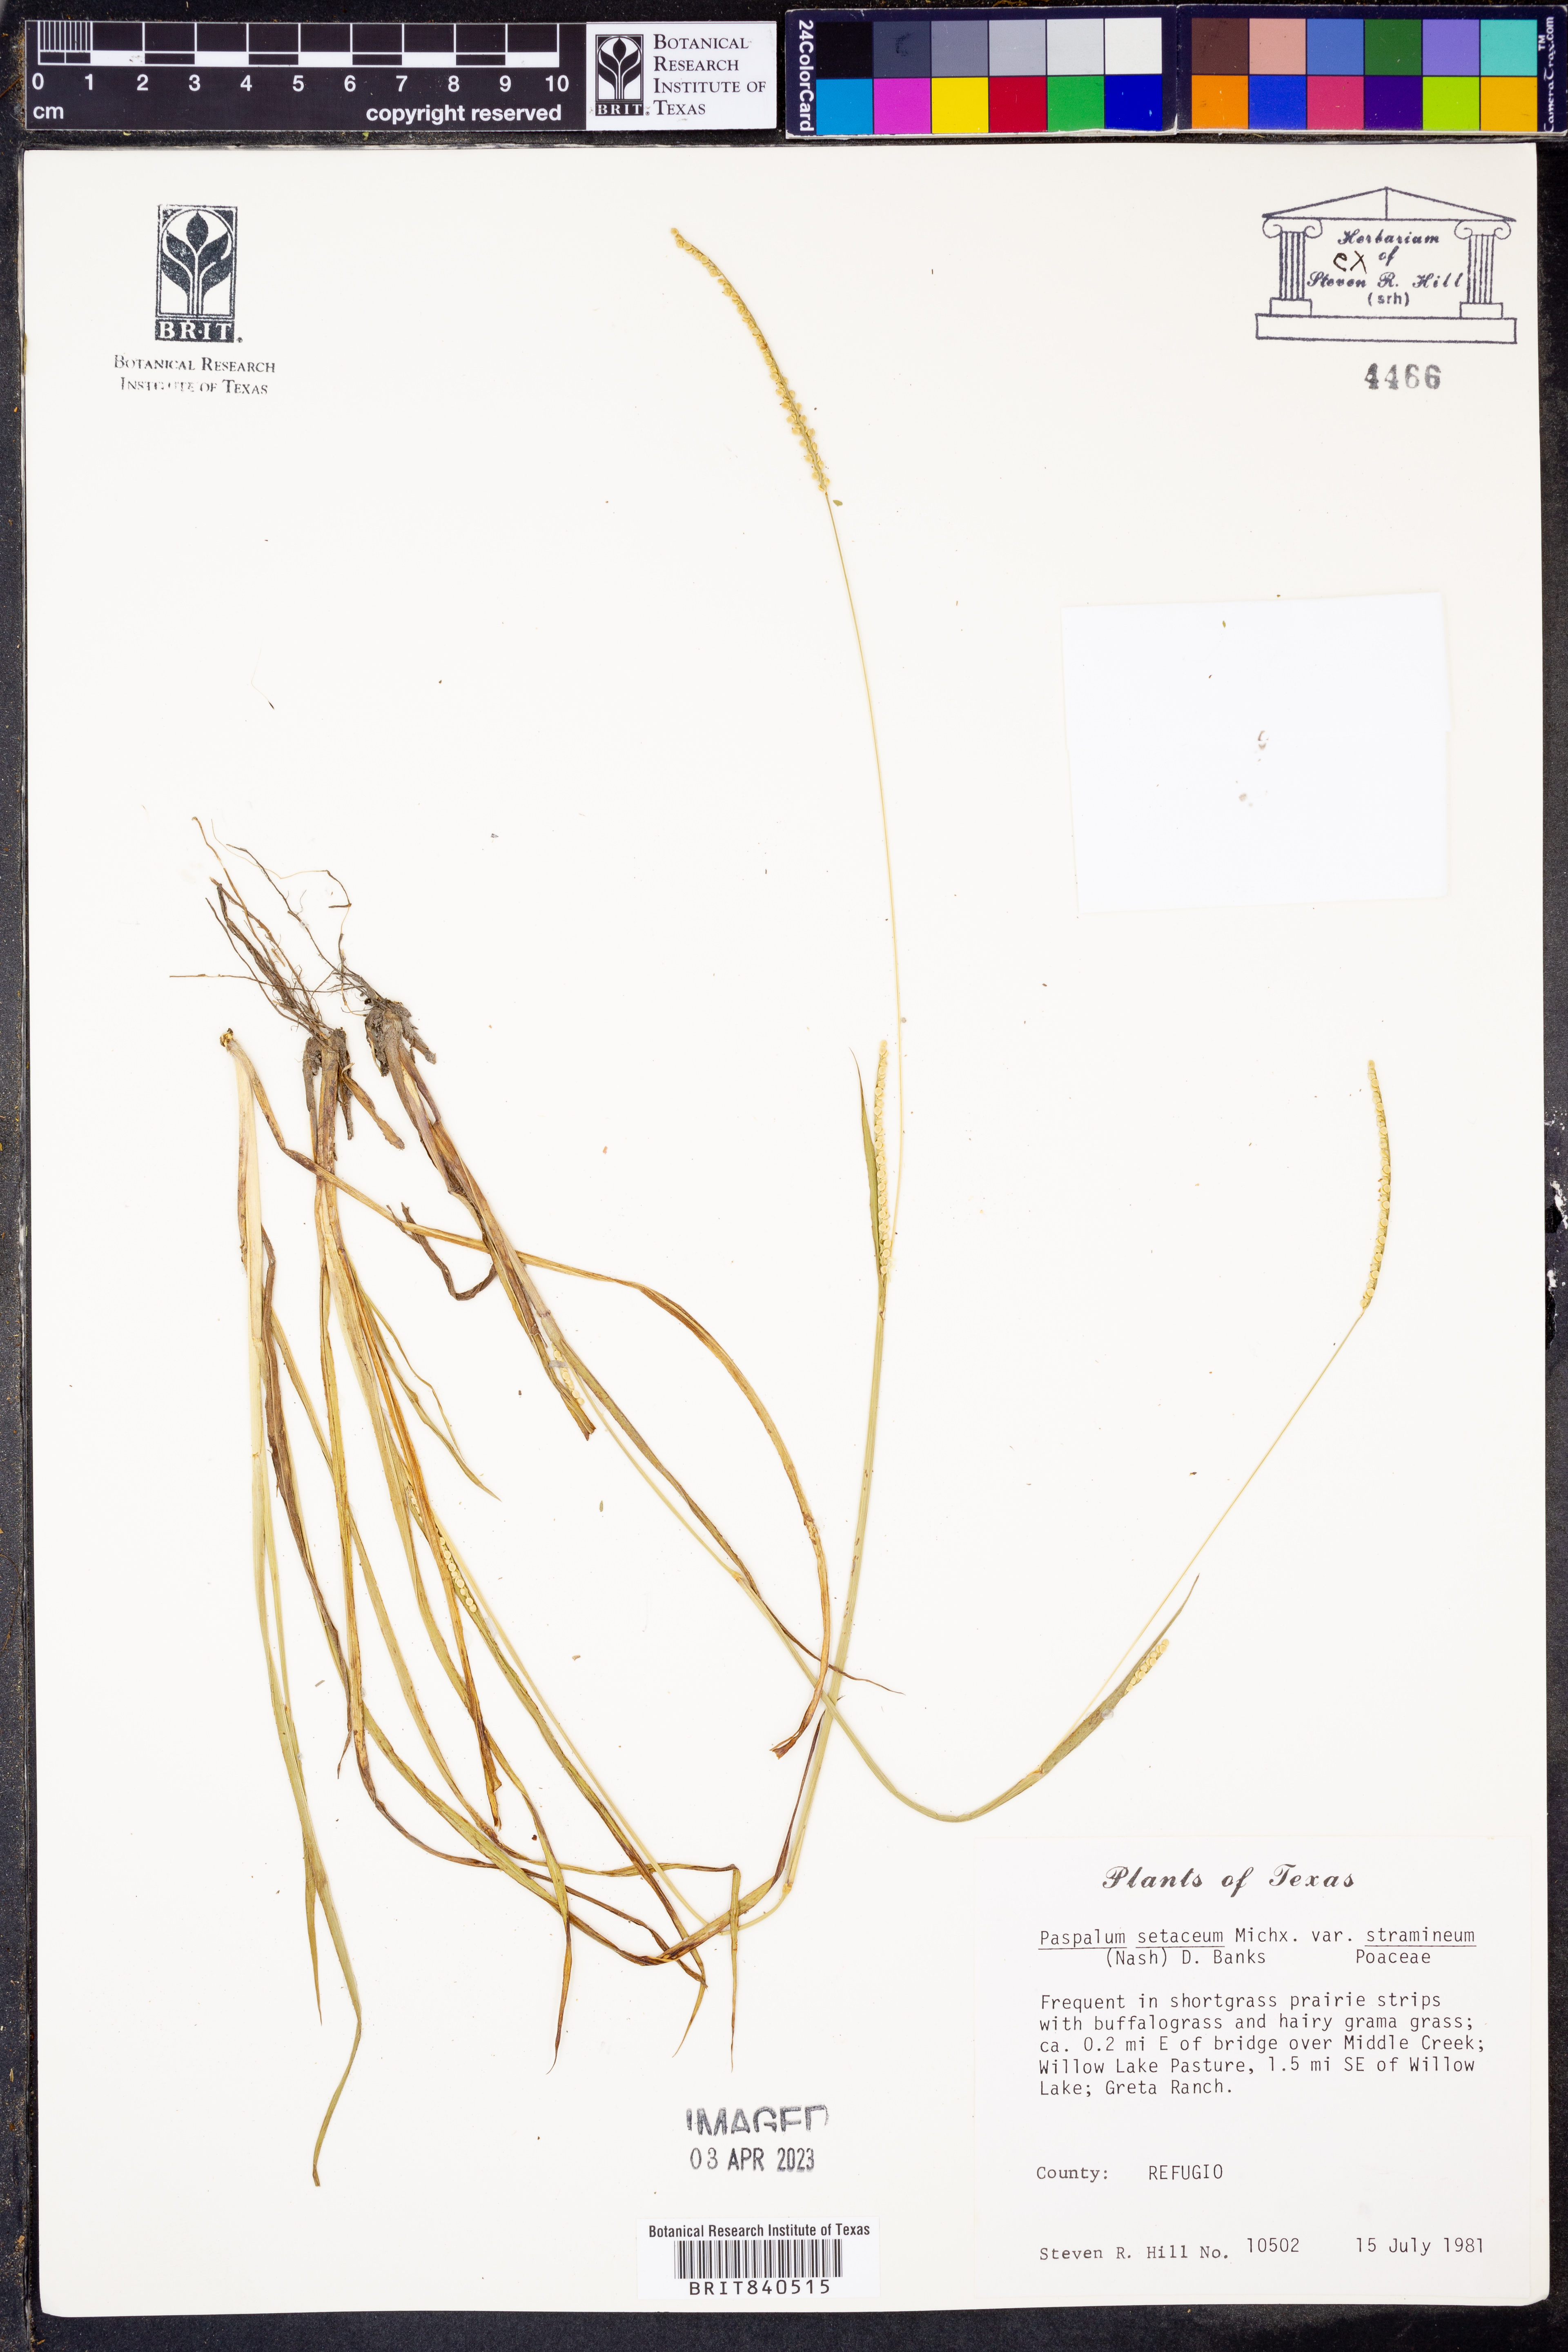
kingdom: Plantae
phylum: Tracheophyta
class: Liliopsida
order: Poales
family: Poaceae
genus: Paspalum
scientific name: Paspalum setaceum
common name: Slender paspalum
